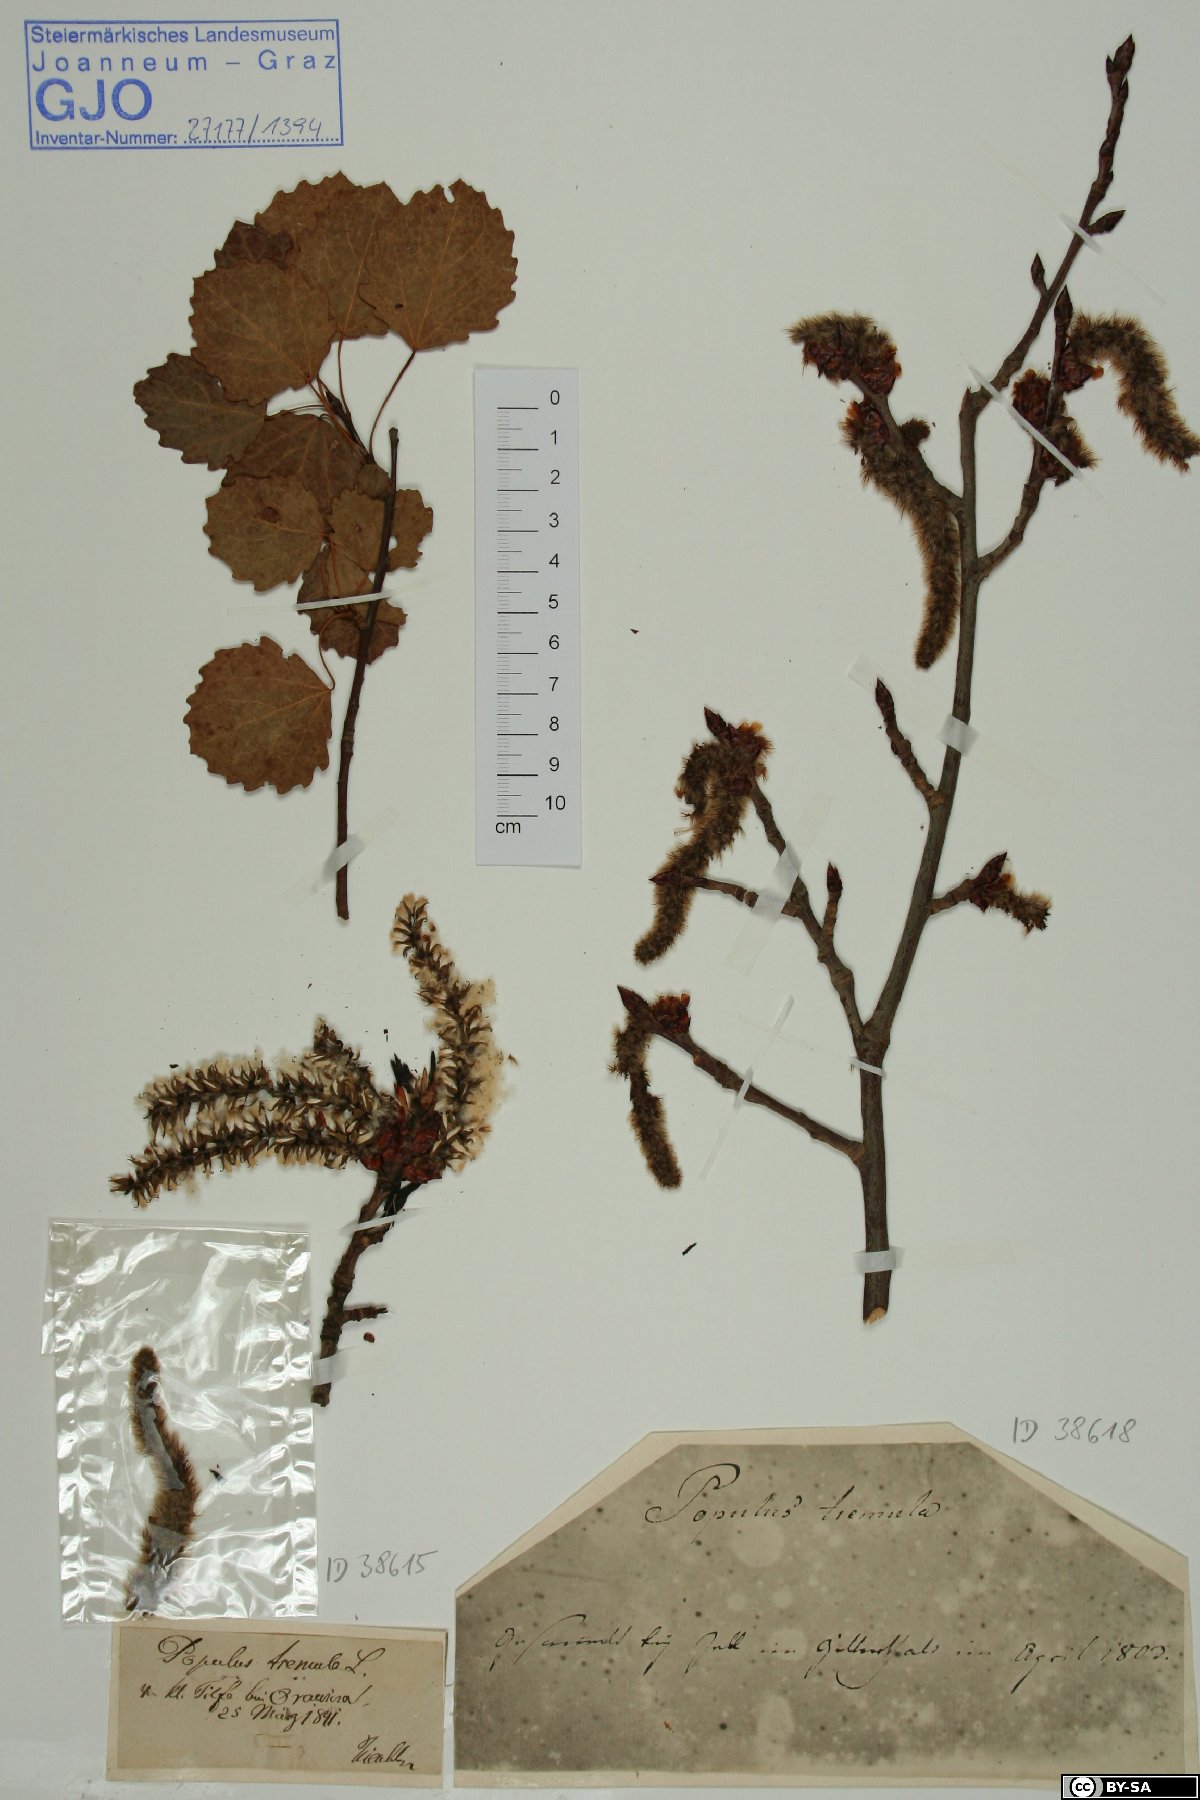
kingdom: Plantae
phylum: Tracheophyta
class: Magnoliopsida
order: Malpighiales
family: Salicaceae
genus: Populus
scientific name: Populus tremula
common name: European aspen
